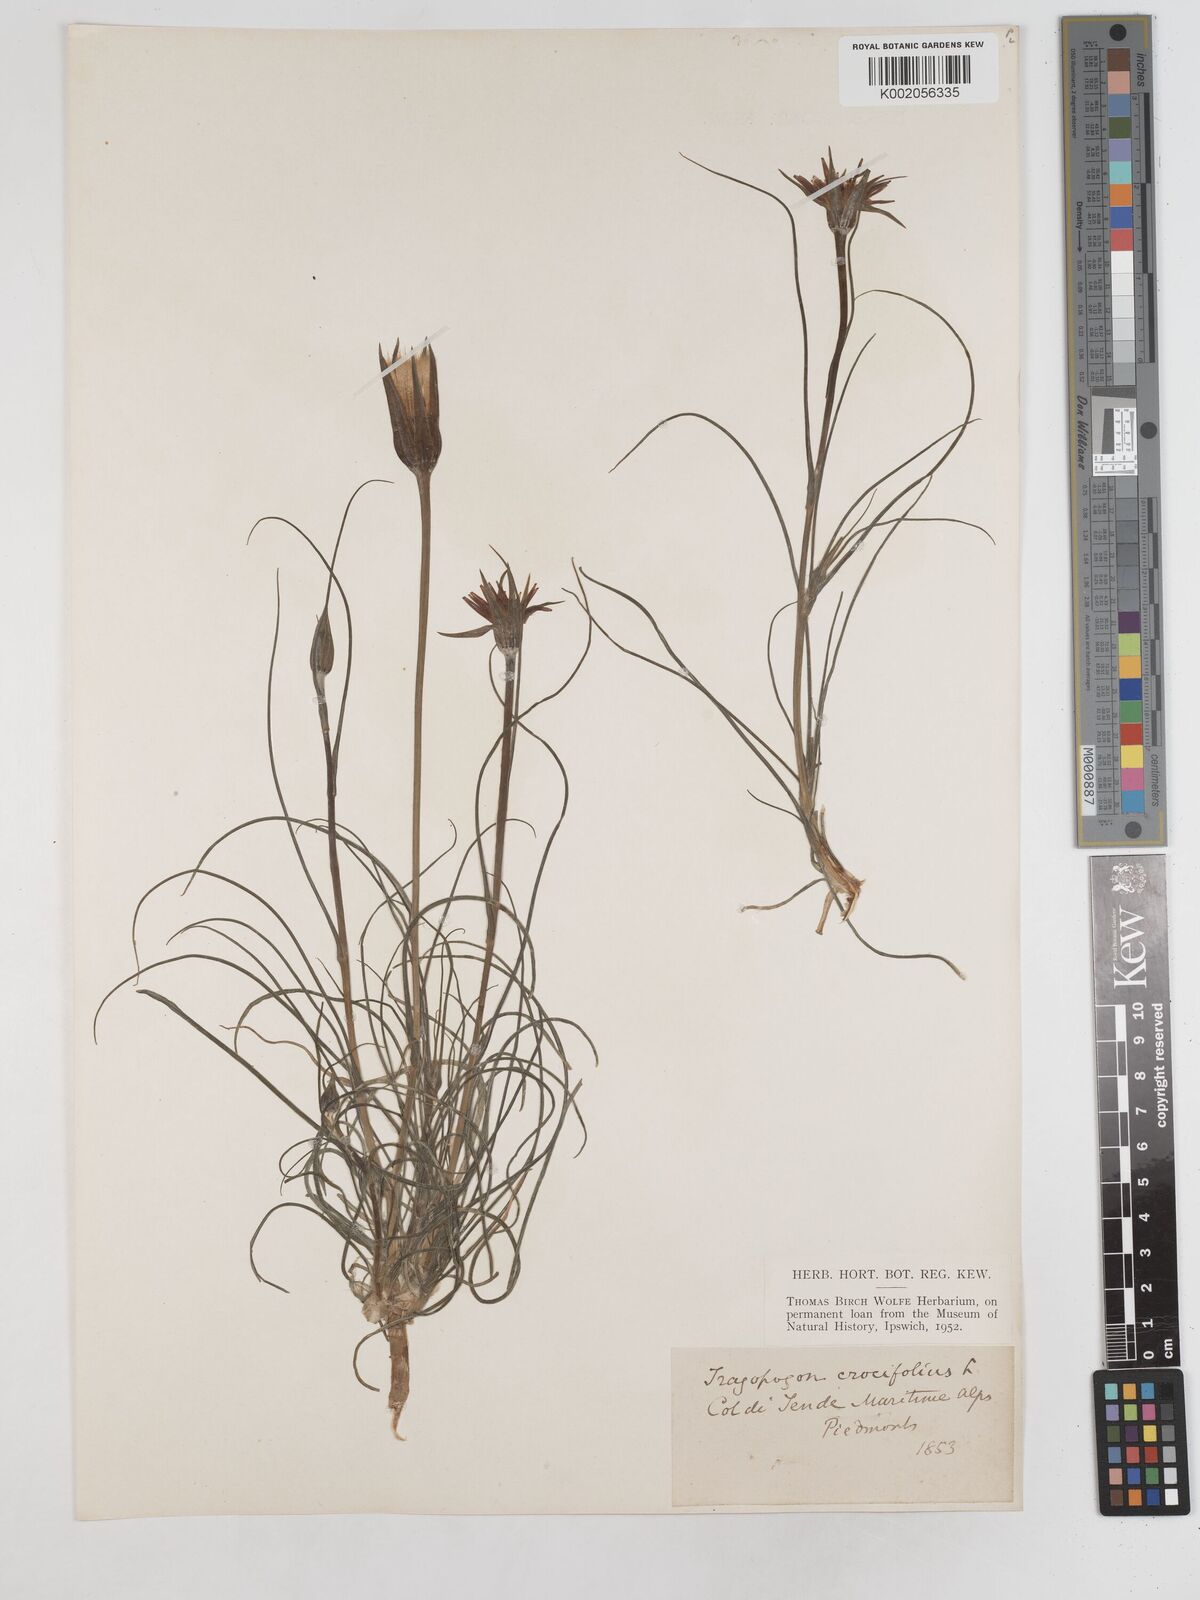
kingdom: Plantae
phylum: Tracheophyta
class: Magnoliopsida
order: Asterales
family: Asteraceae
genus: Tragopogon
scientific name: Tragopogon crocifolius
